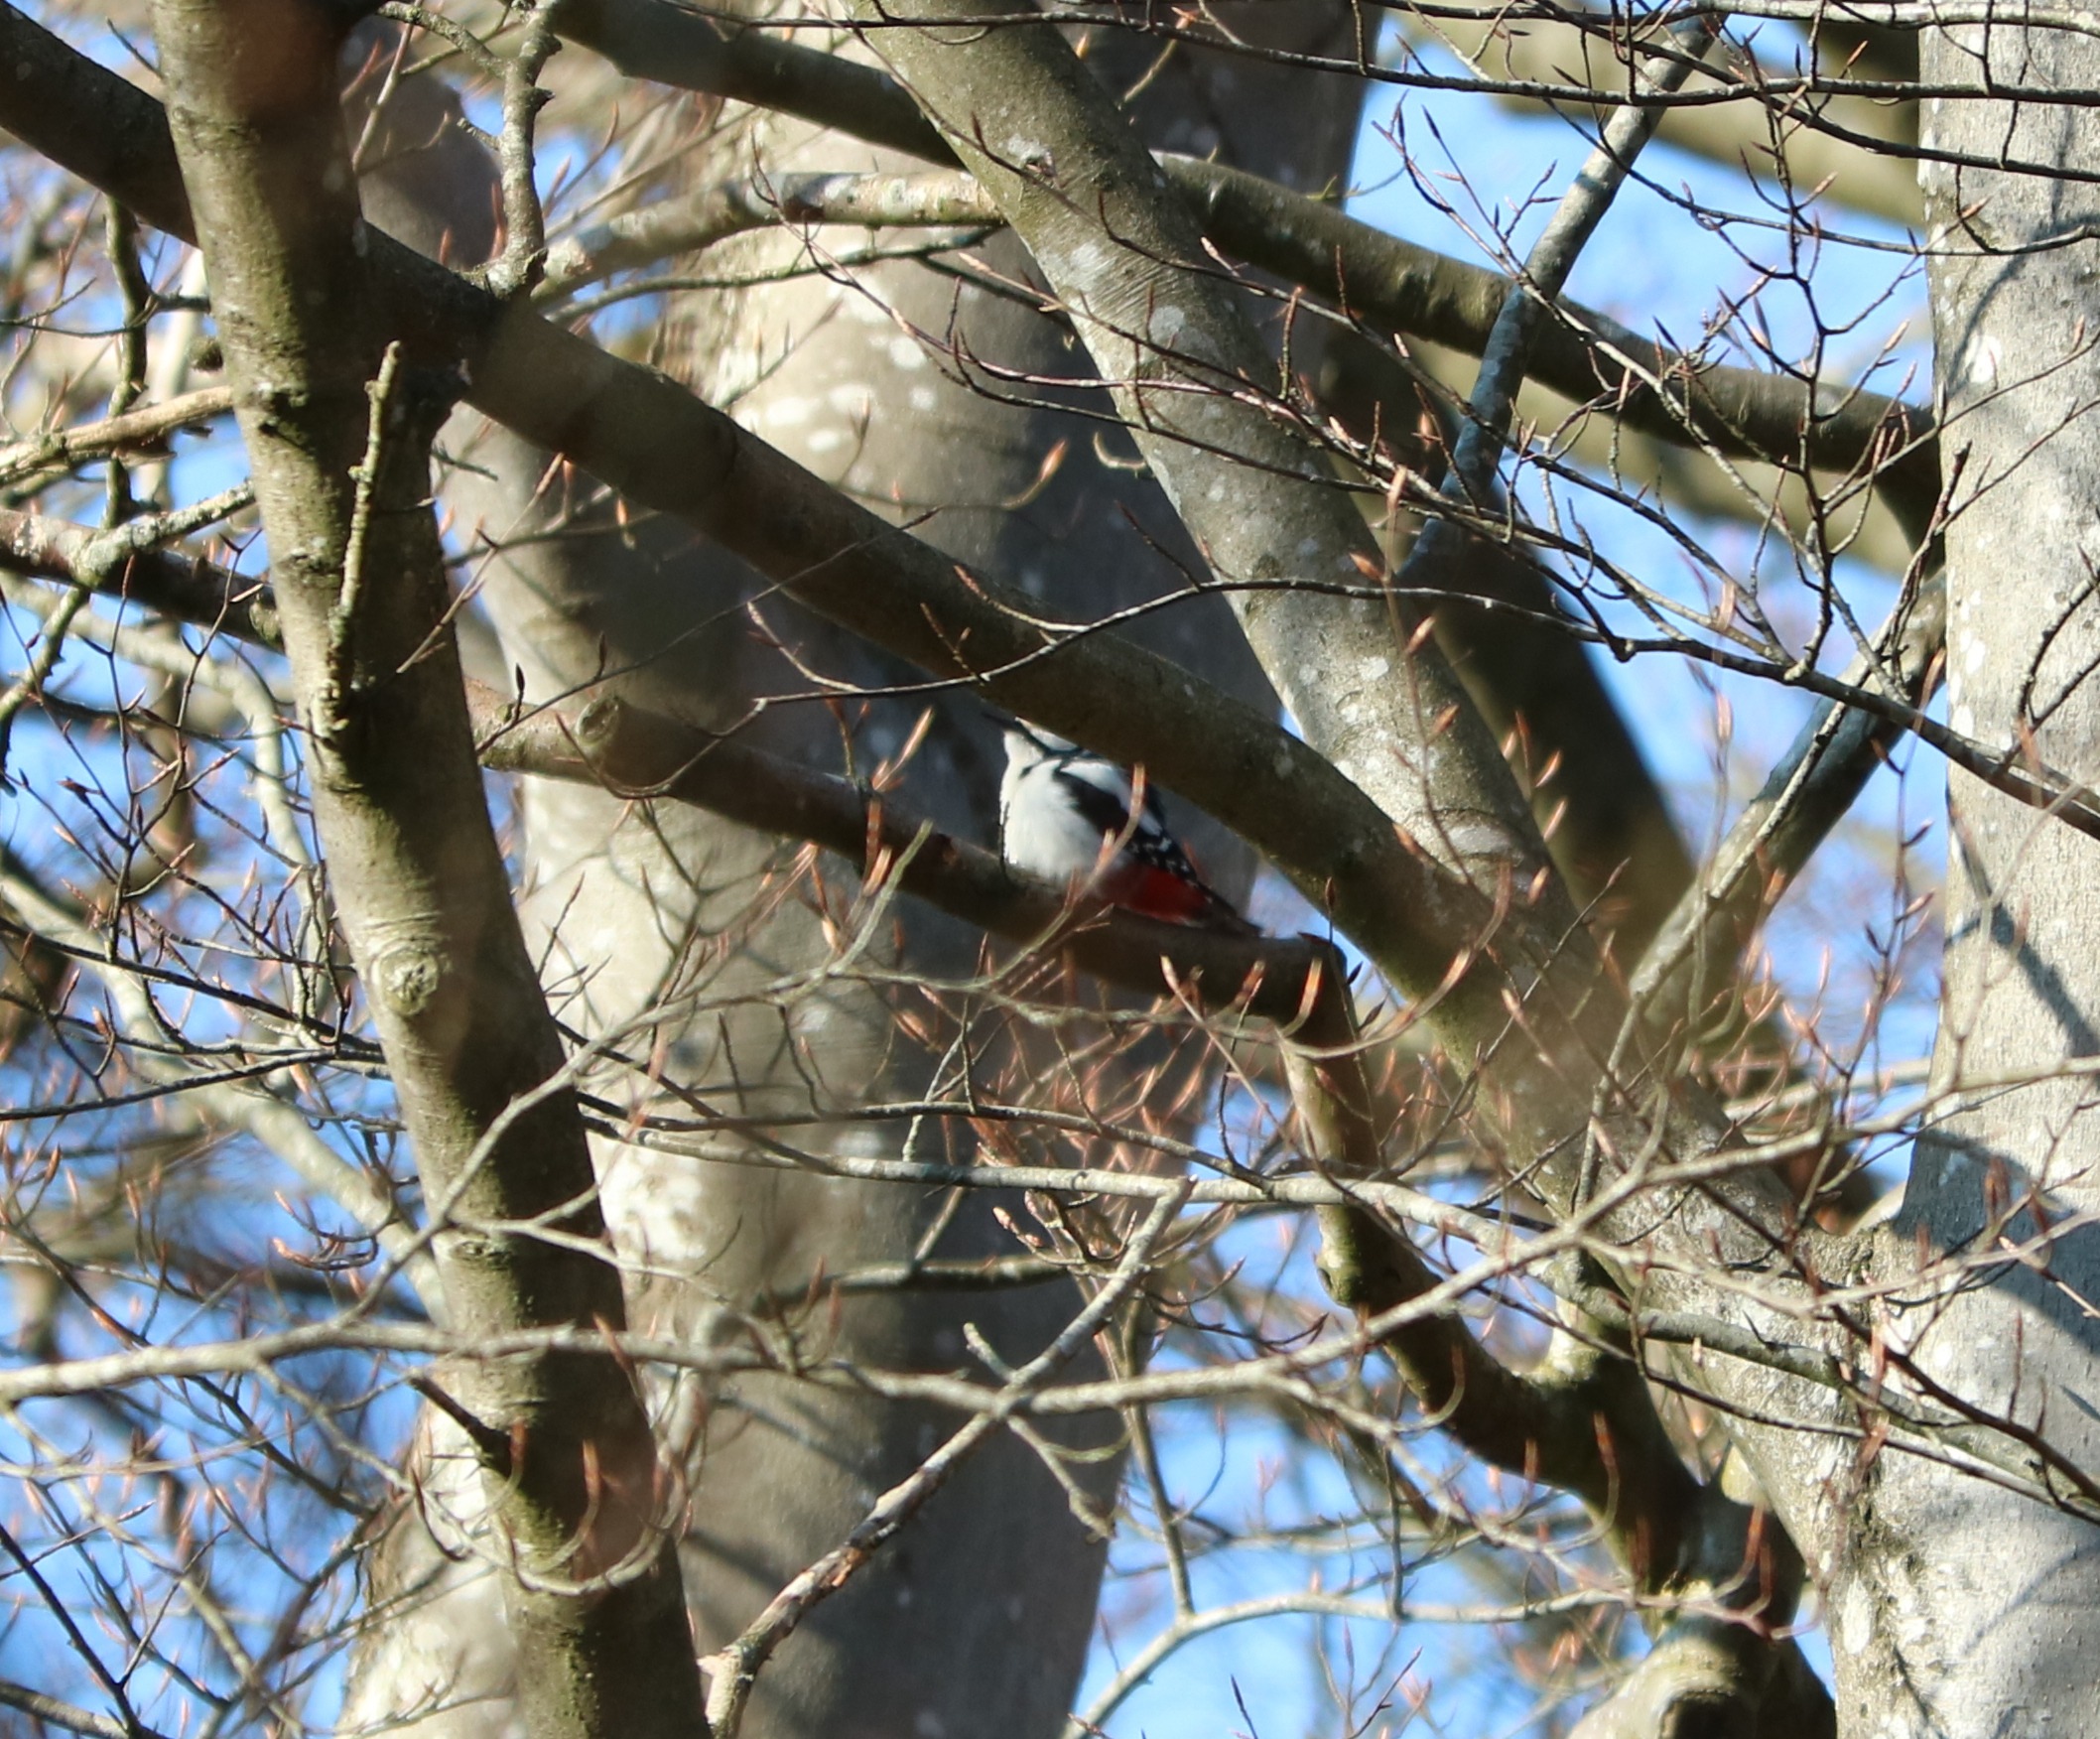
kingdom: Animalia
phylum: Chordata
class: Aves
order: Piciformes
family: Picidae
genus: Dendrocopos
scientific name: Dendrocopos major
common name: Stor flagspætte
